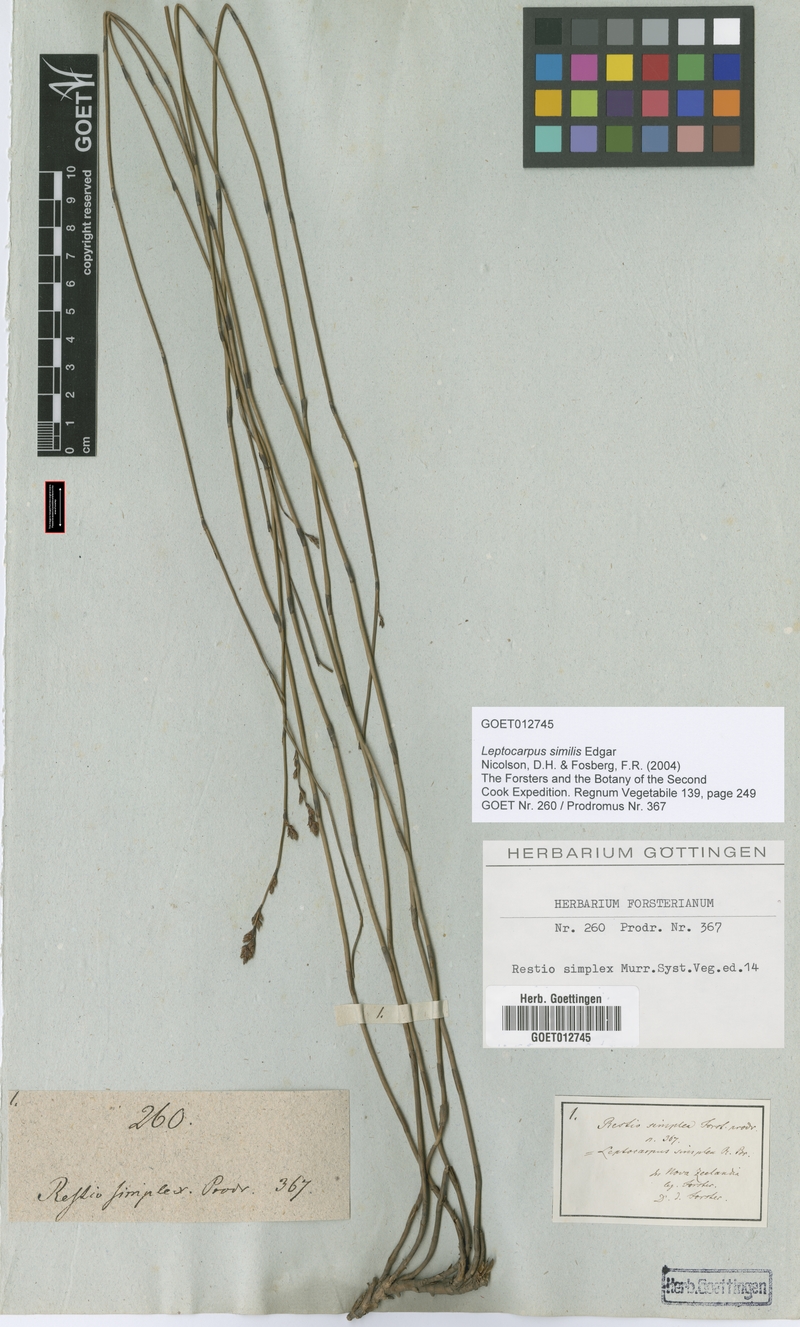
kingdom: Plantae
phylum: Tracheophyta
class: Liliopsida
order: Poales
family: Restionaceae
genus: Apodasmia
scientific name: Apodasmia similis
